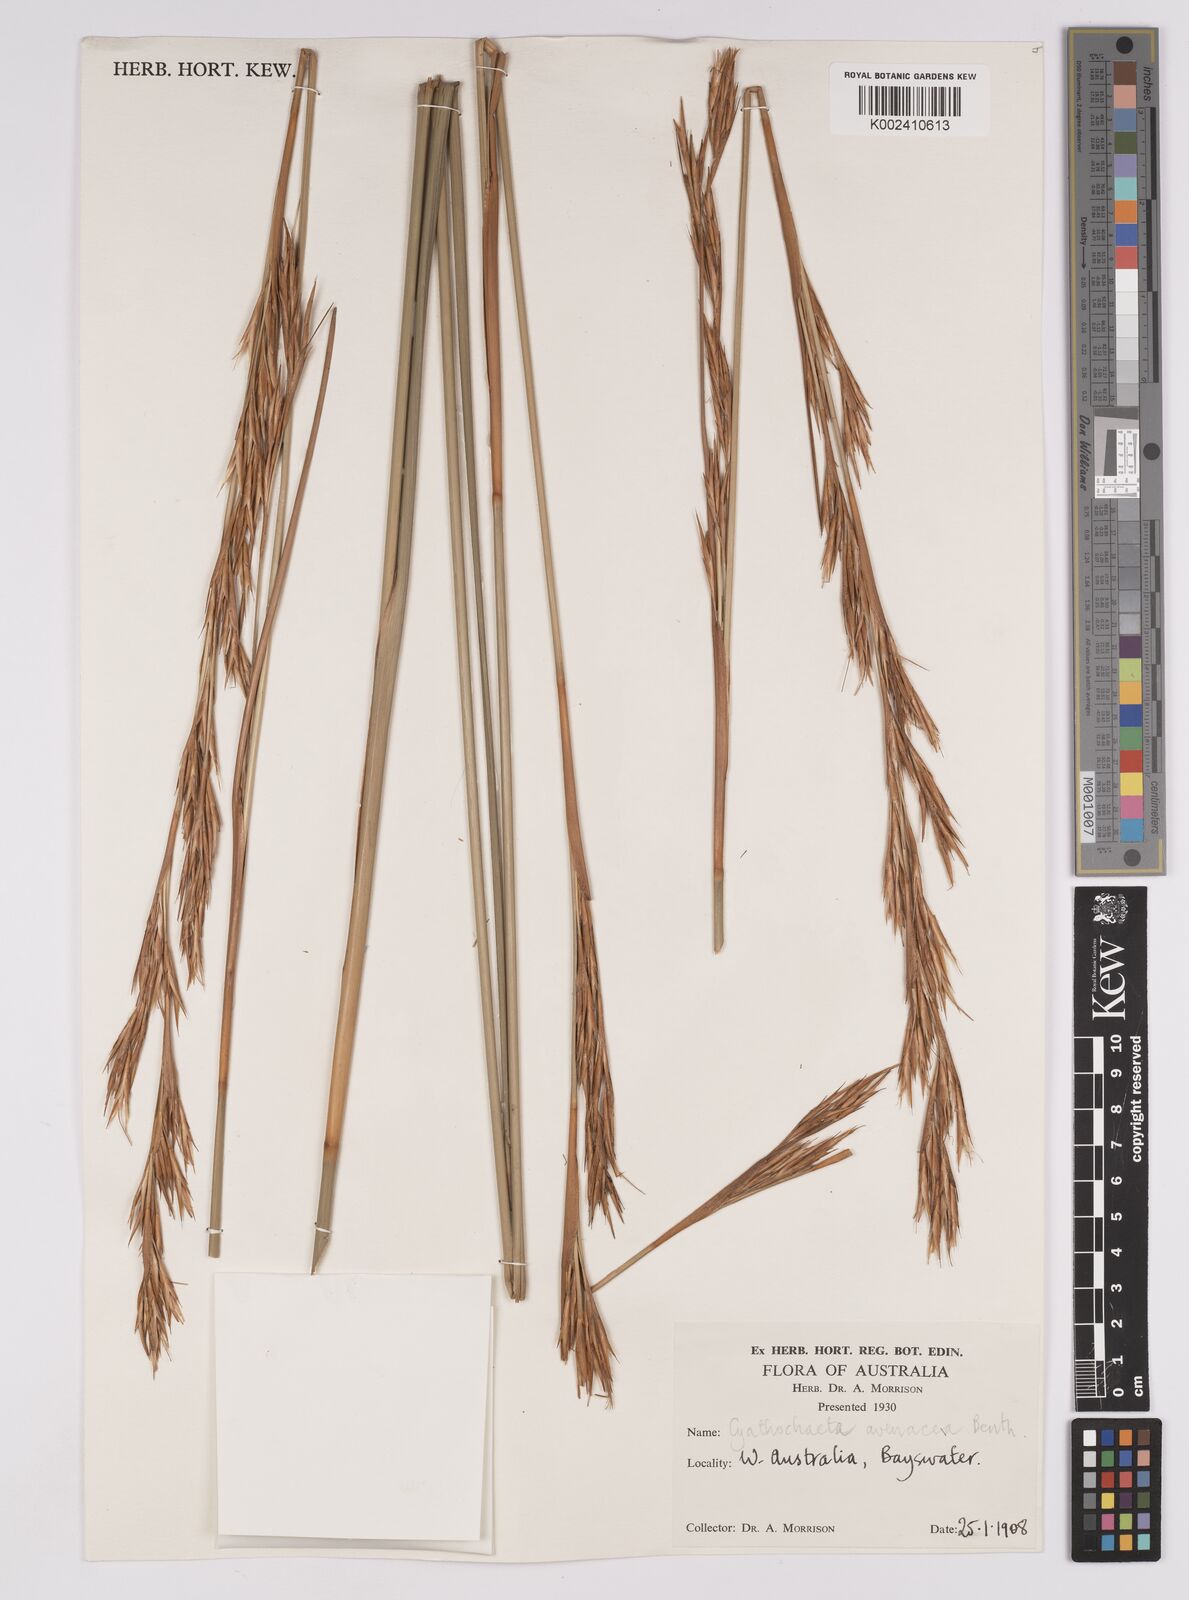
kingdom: Plantae
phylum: Tracheophyta
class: Liliopsida
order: Poales
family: Cyperaceae
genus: Cyathochaeta
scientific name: Cyathochaeta avenacea
